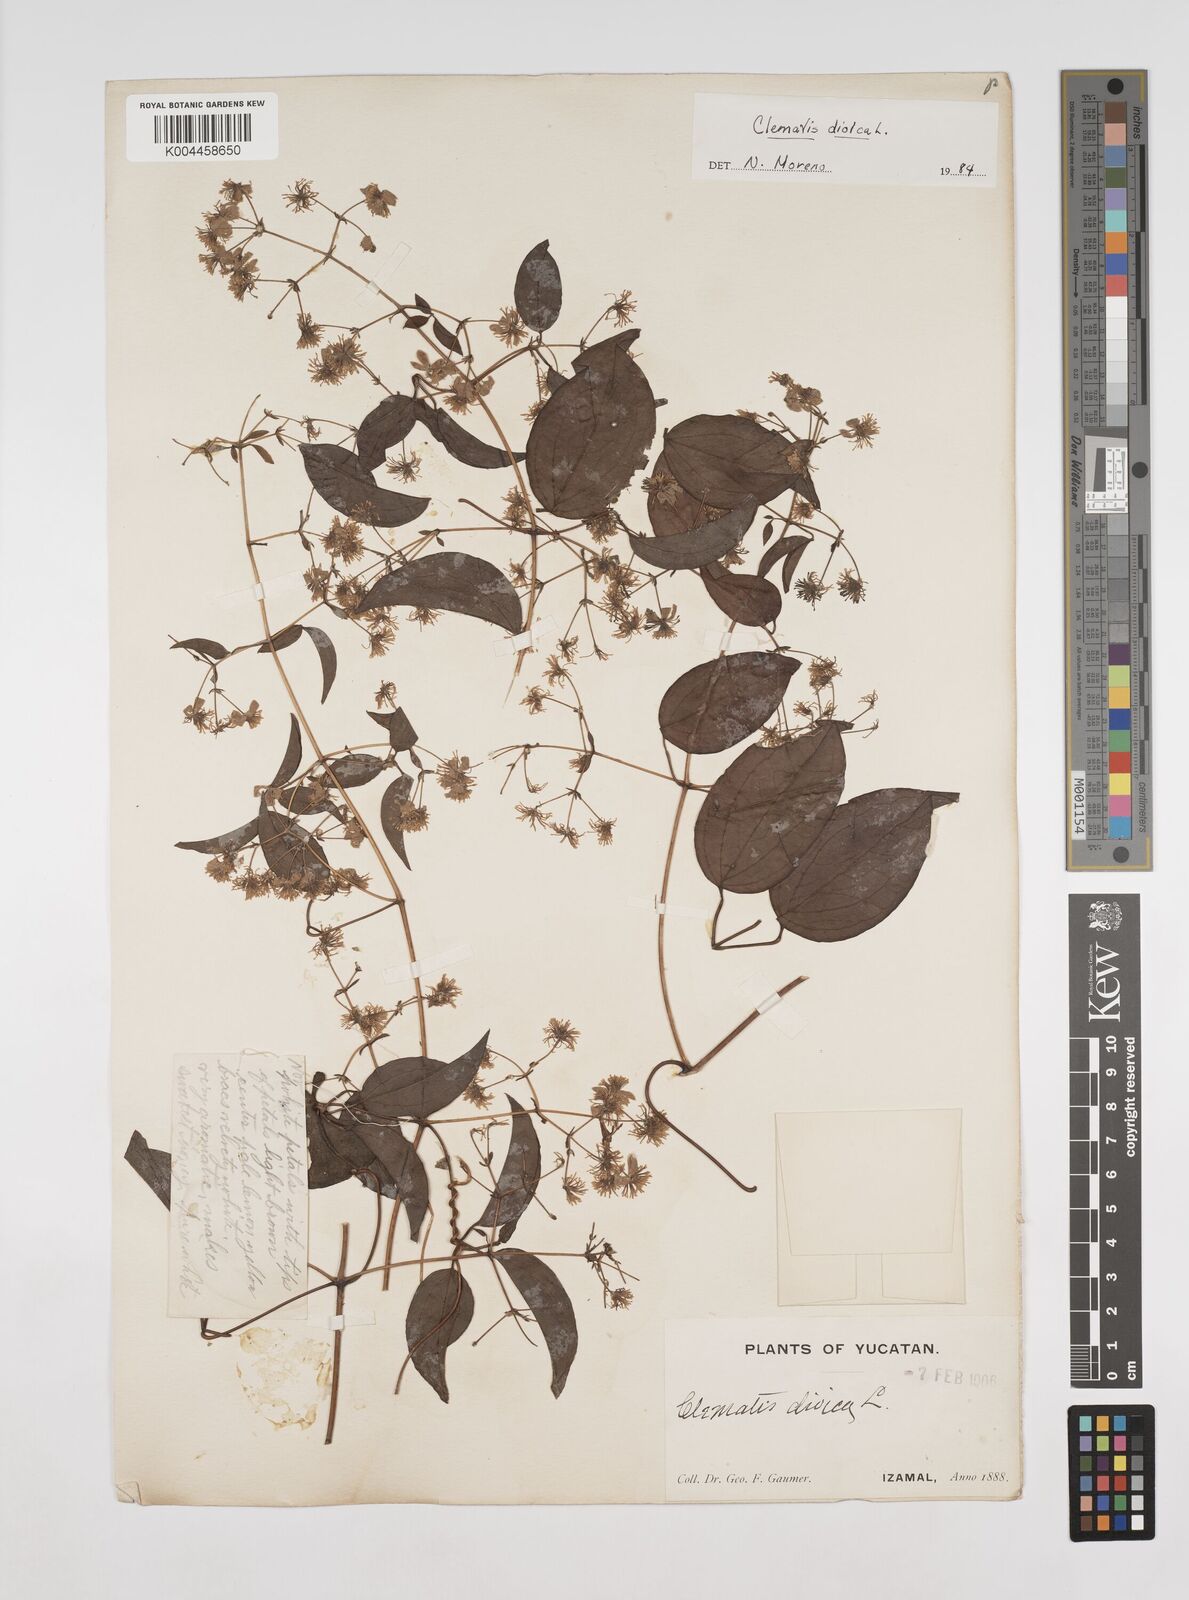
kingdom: Plantae
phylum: Tracheophyta
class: Magnoliopsida
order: Ranunculales
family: Ranunculaceae
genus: Clematis
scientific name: Clematis dioica
